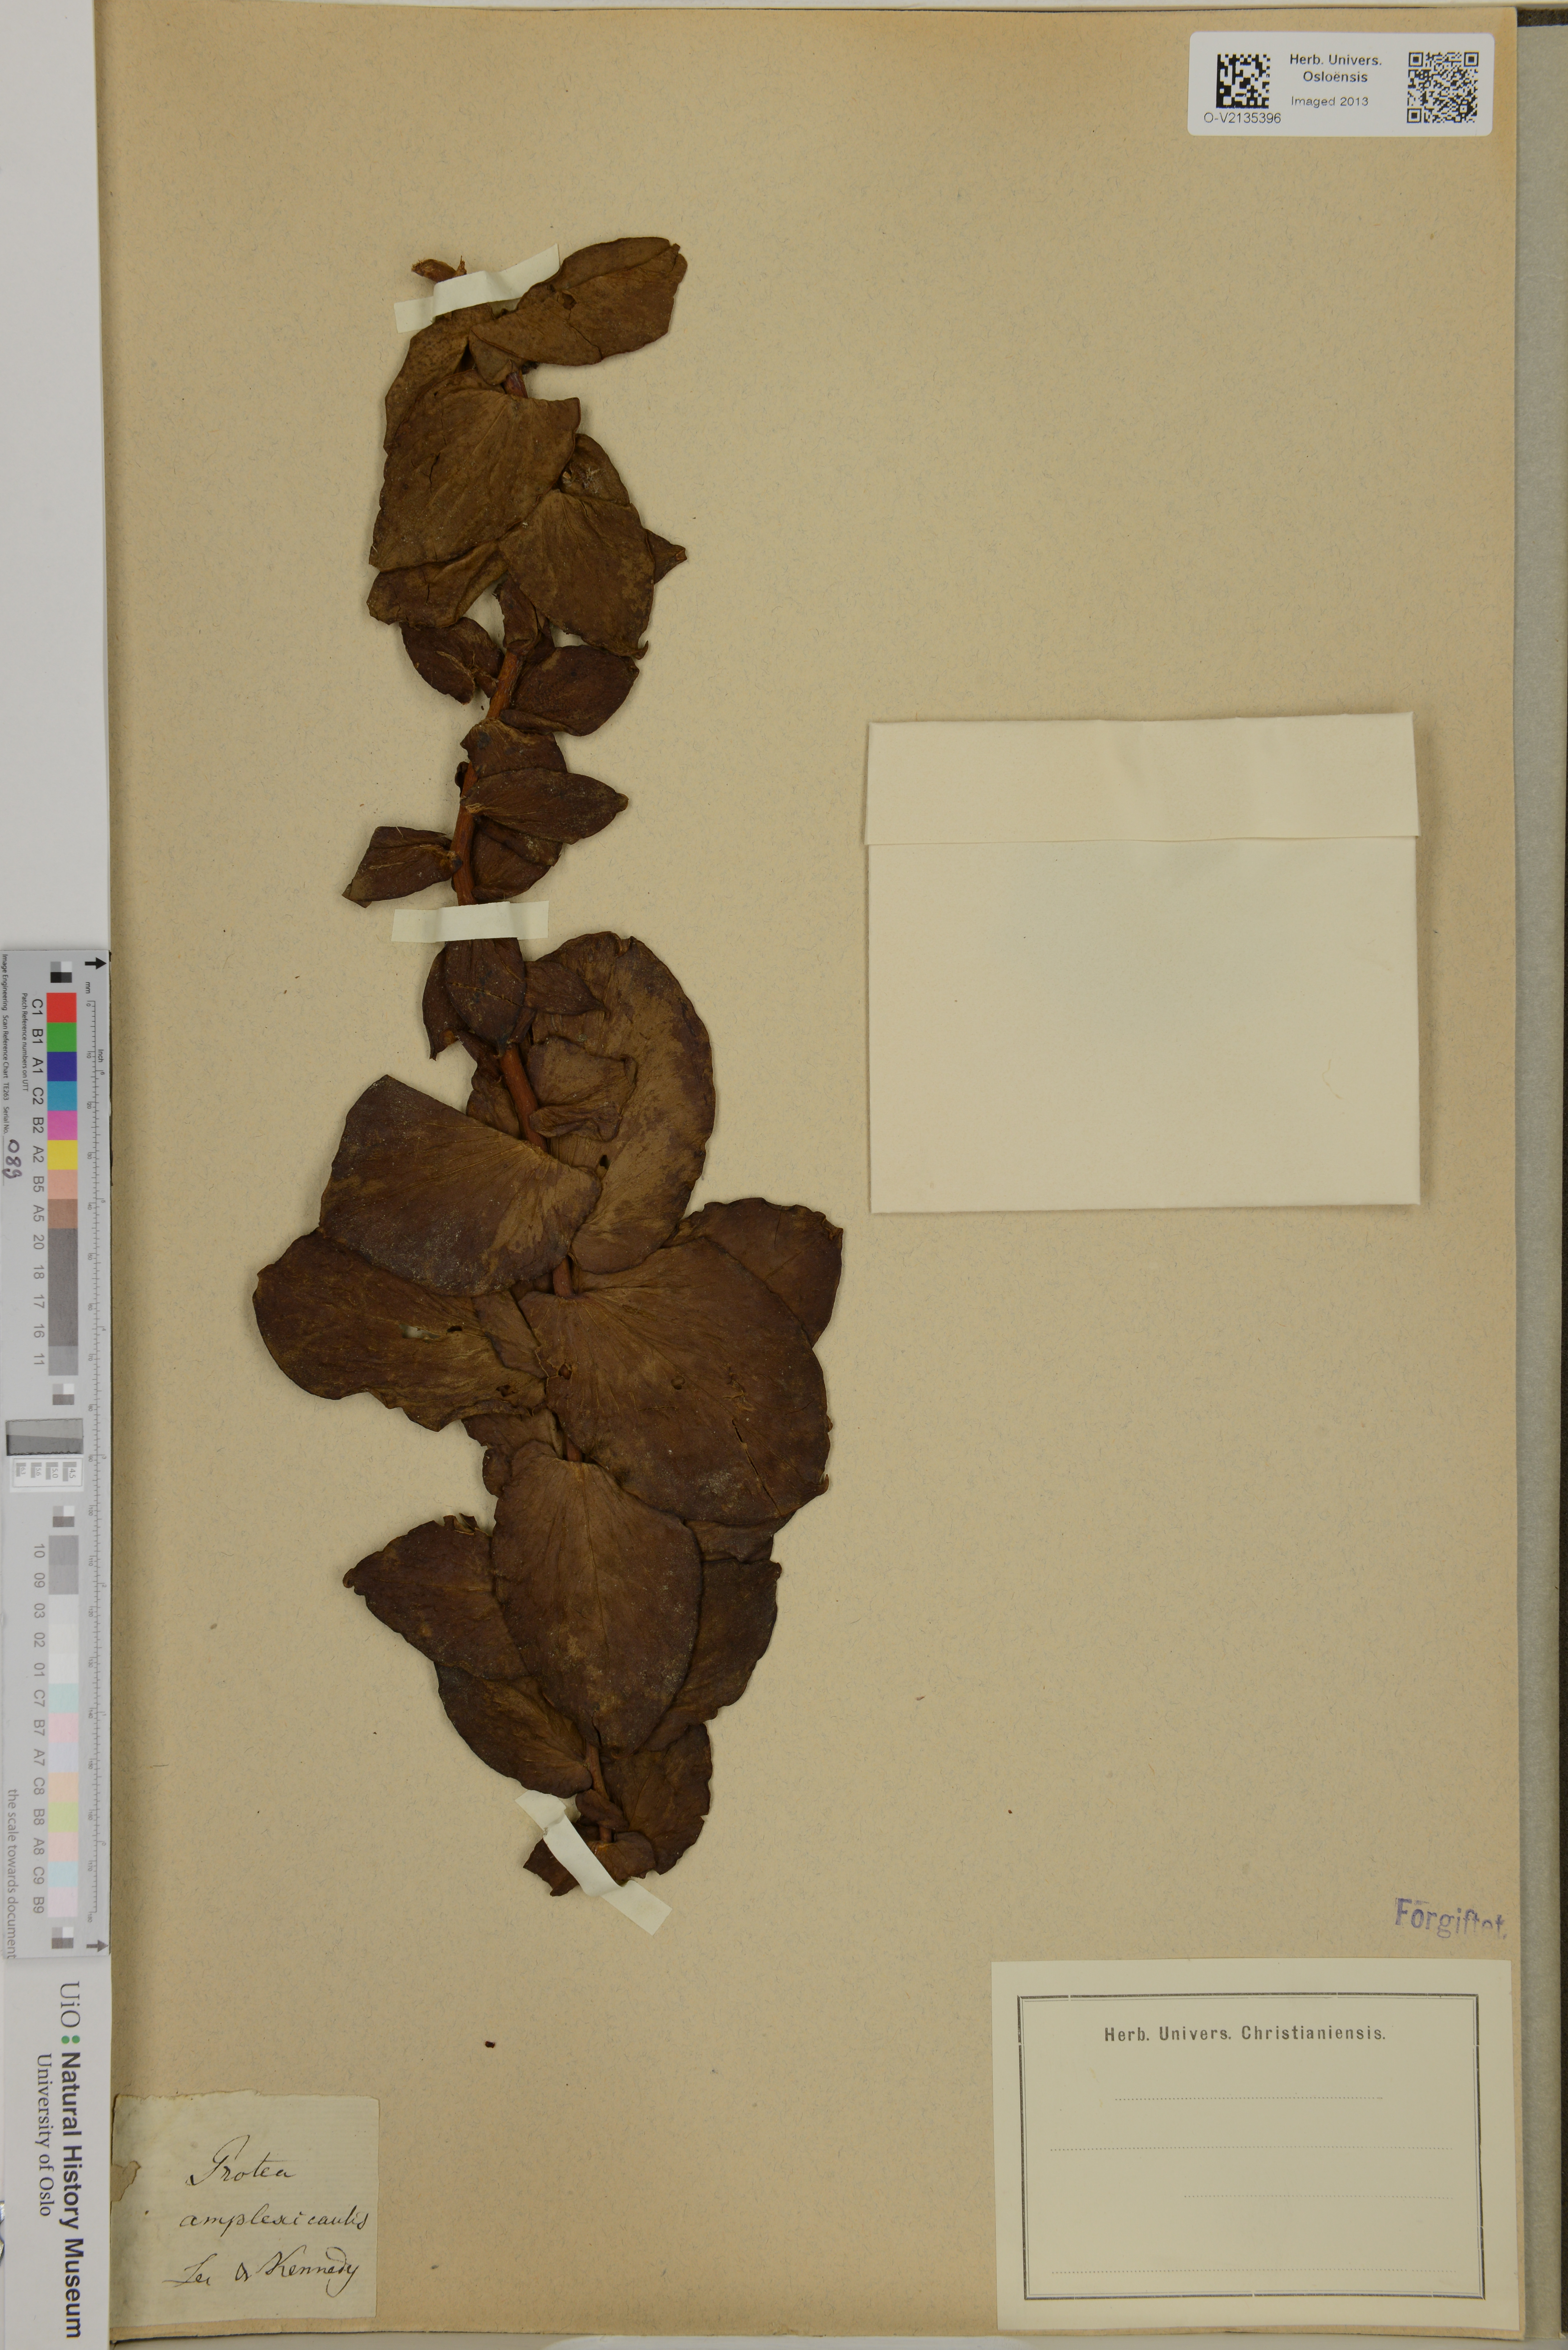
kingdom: Plantae
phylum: Tracheophyta
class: Magnoliopsida
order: Proteales
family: Proteaceae
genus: Protea
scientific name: Protea amplexicaulis
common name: Clasping-leaf sugarbush
